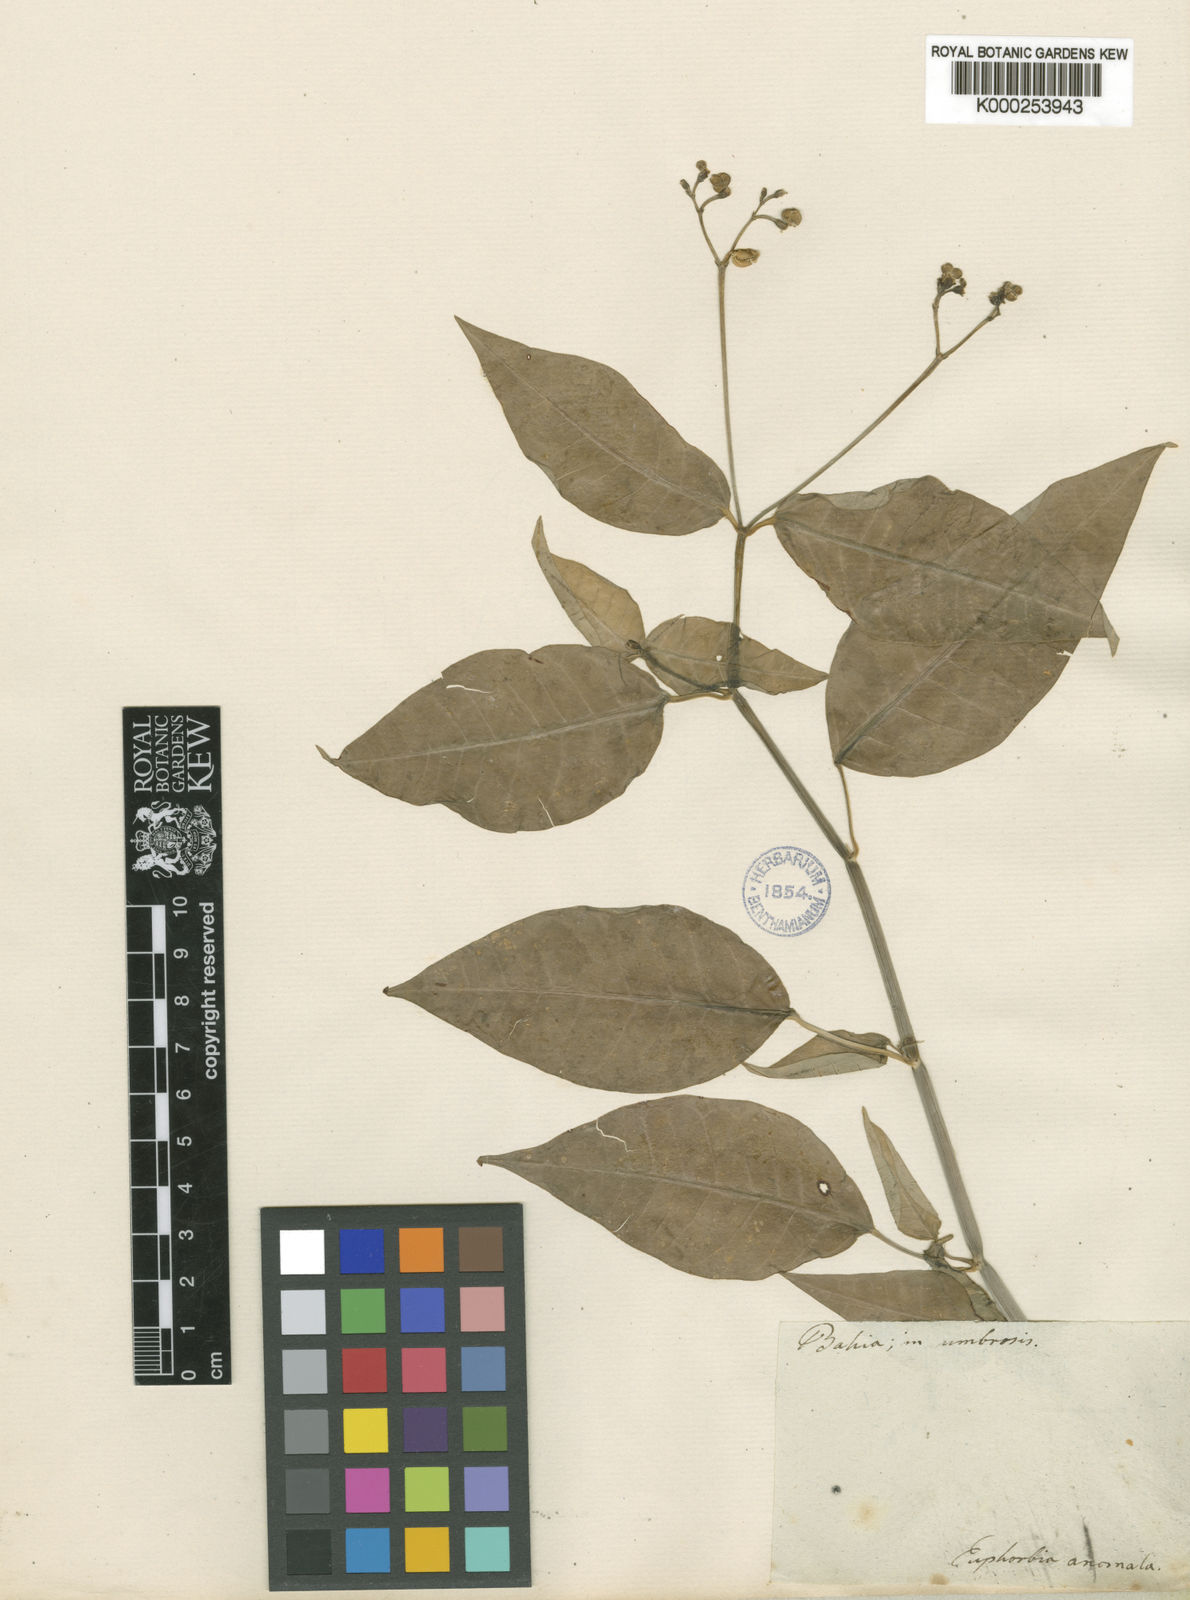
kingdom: Plantae
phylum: Tracheophyta
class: Magnoliopsida
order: Malpighiales
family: Euphorbiaceae
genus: Euphorbia
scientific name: Euphorbia insulana
